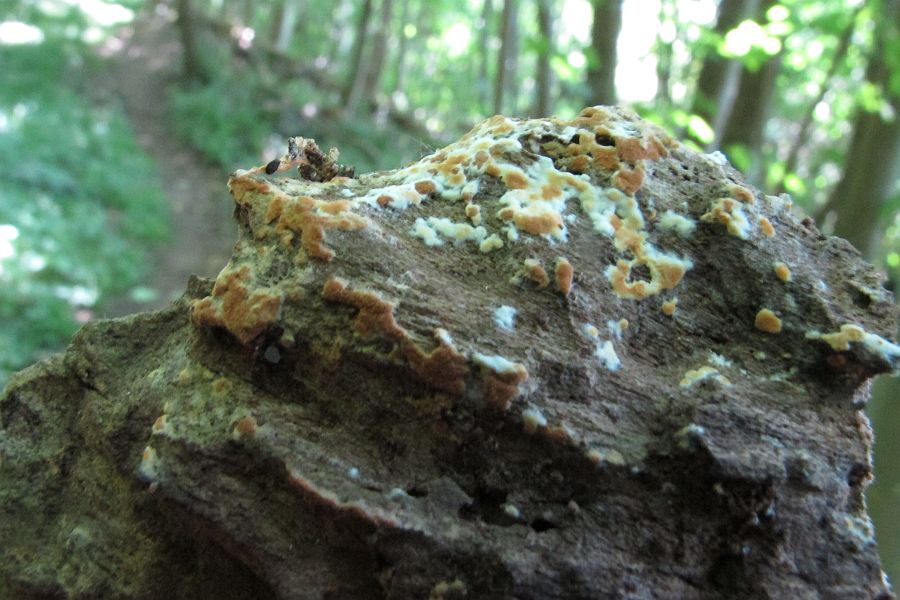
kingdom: Fungi
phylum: Basidiomycota
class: Agaricomycetes
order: Cantharellales
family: Botryobasidiaceae
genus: Botryobasidium
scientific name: Botryobasidium aureum
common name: gylden spindhinde
